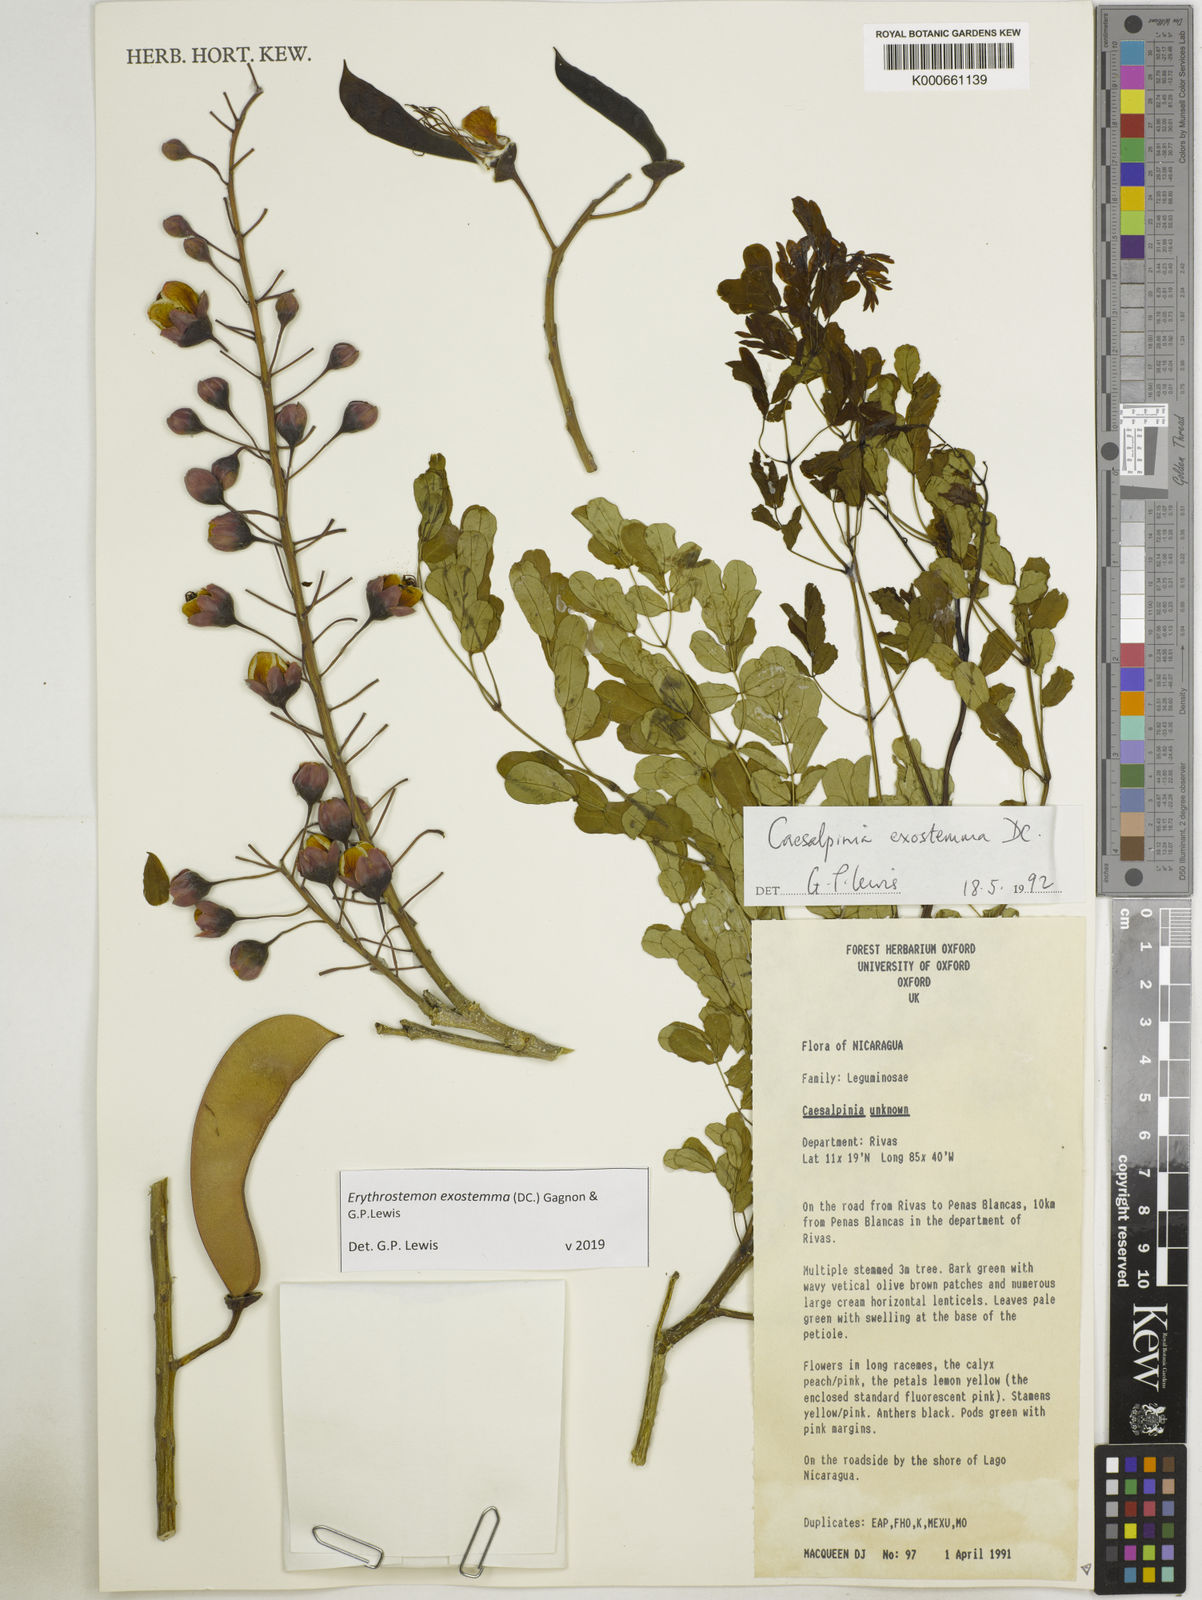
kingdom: Plantae
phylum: Tracheophyta
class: Magnoliopsida
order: Fabales
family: Fabaceae
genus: Erythrostemon
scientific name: Erythrostemon exostemma
